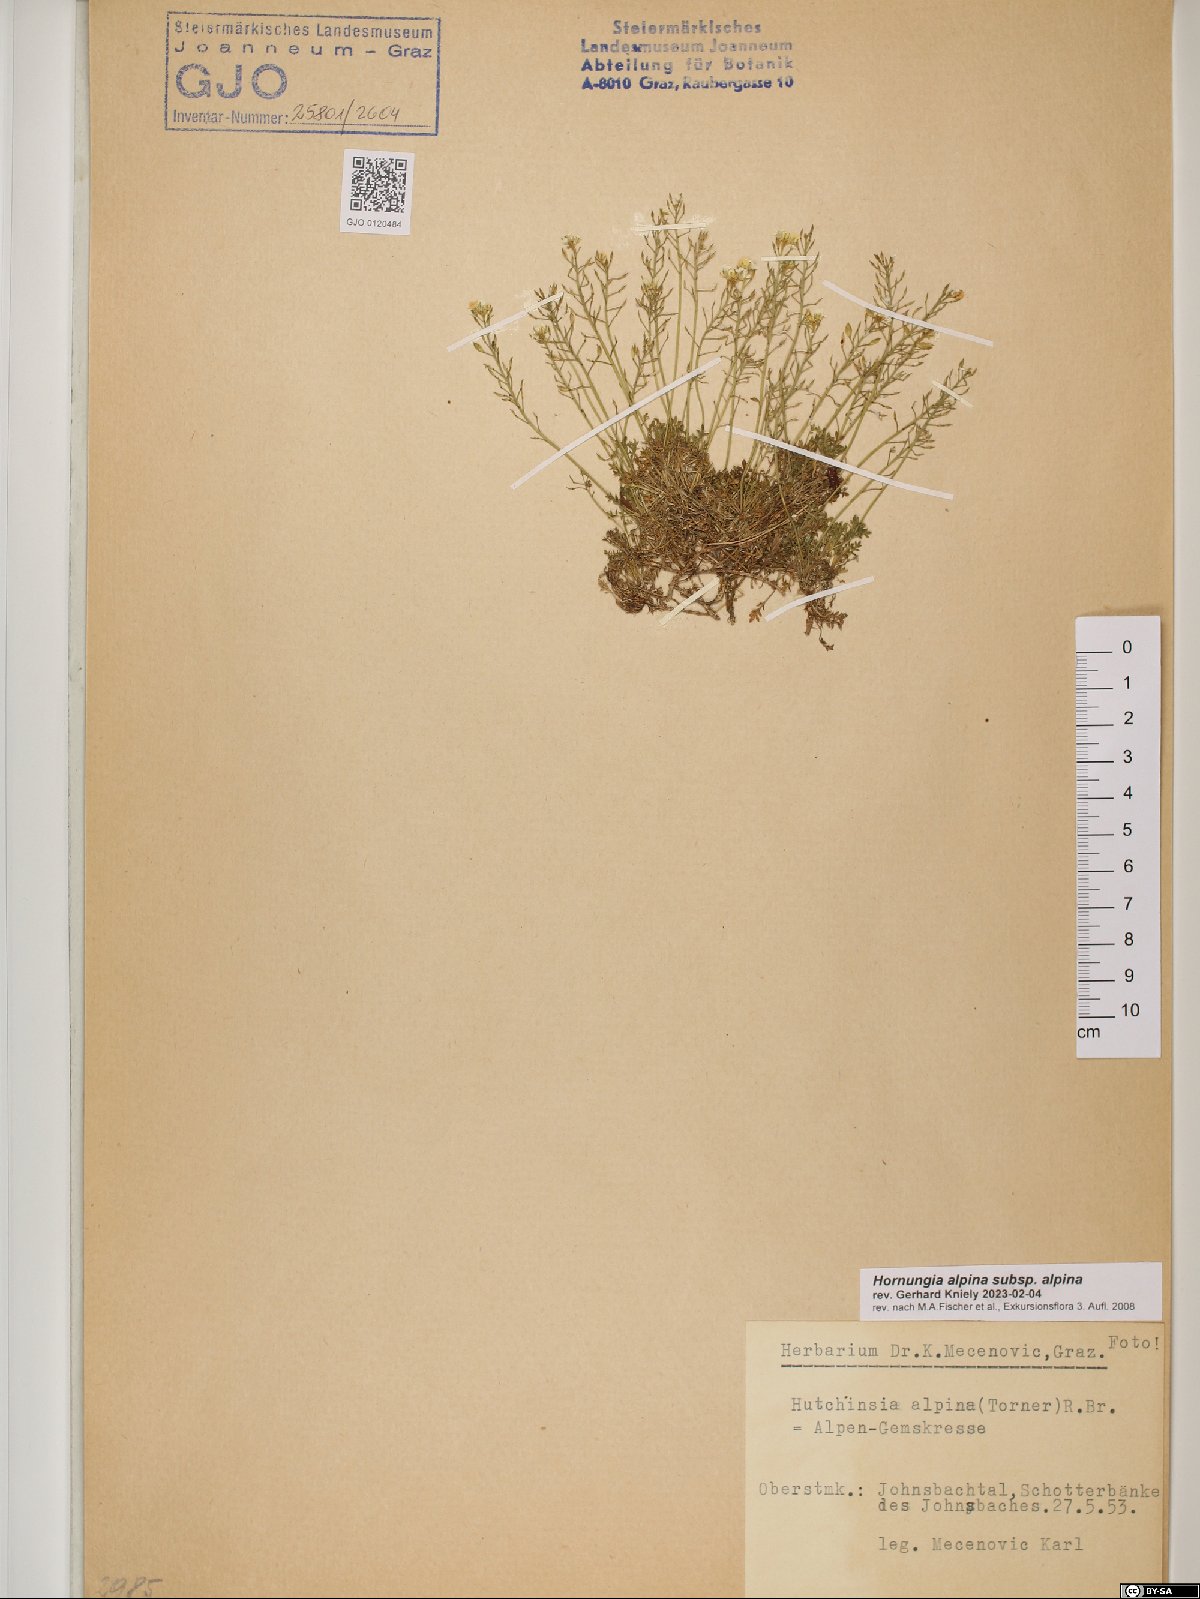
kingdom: Plantae
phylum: Tracheophyta
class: Magnoliopsida
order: Brassicales
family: Brassicaceae
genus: Hornungia
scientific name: Hornungia alpina
